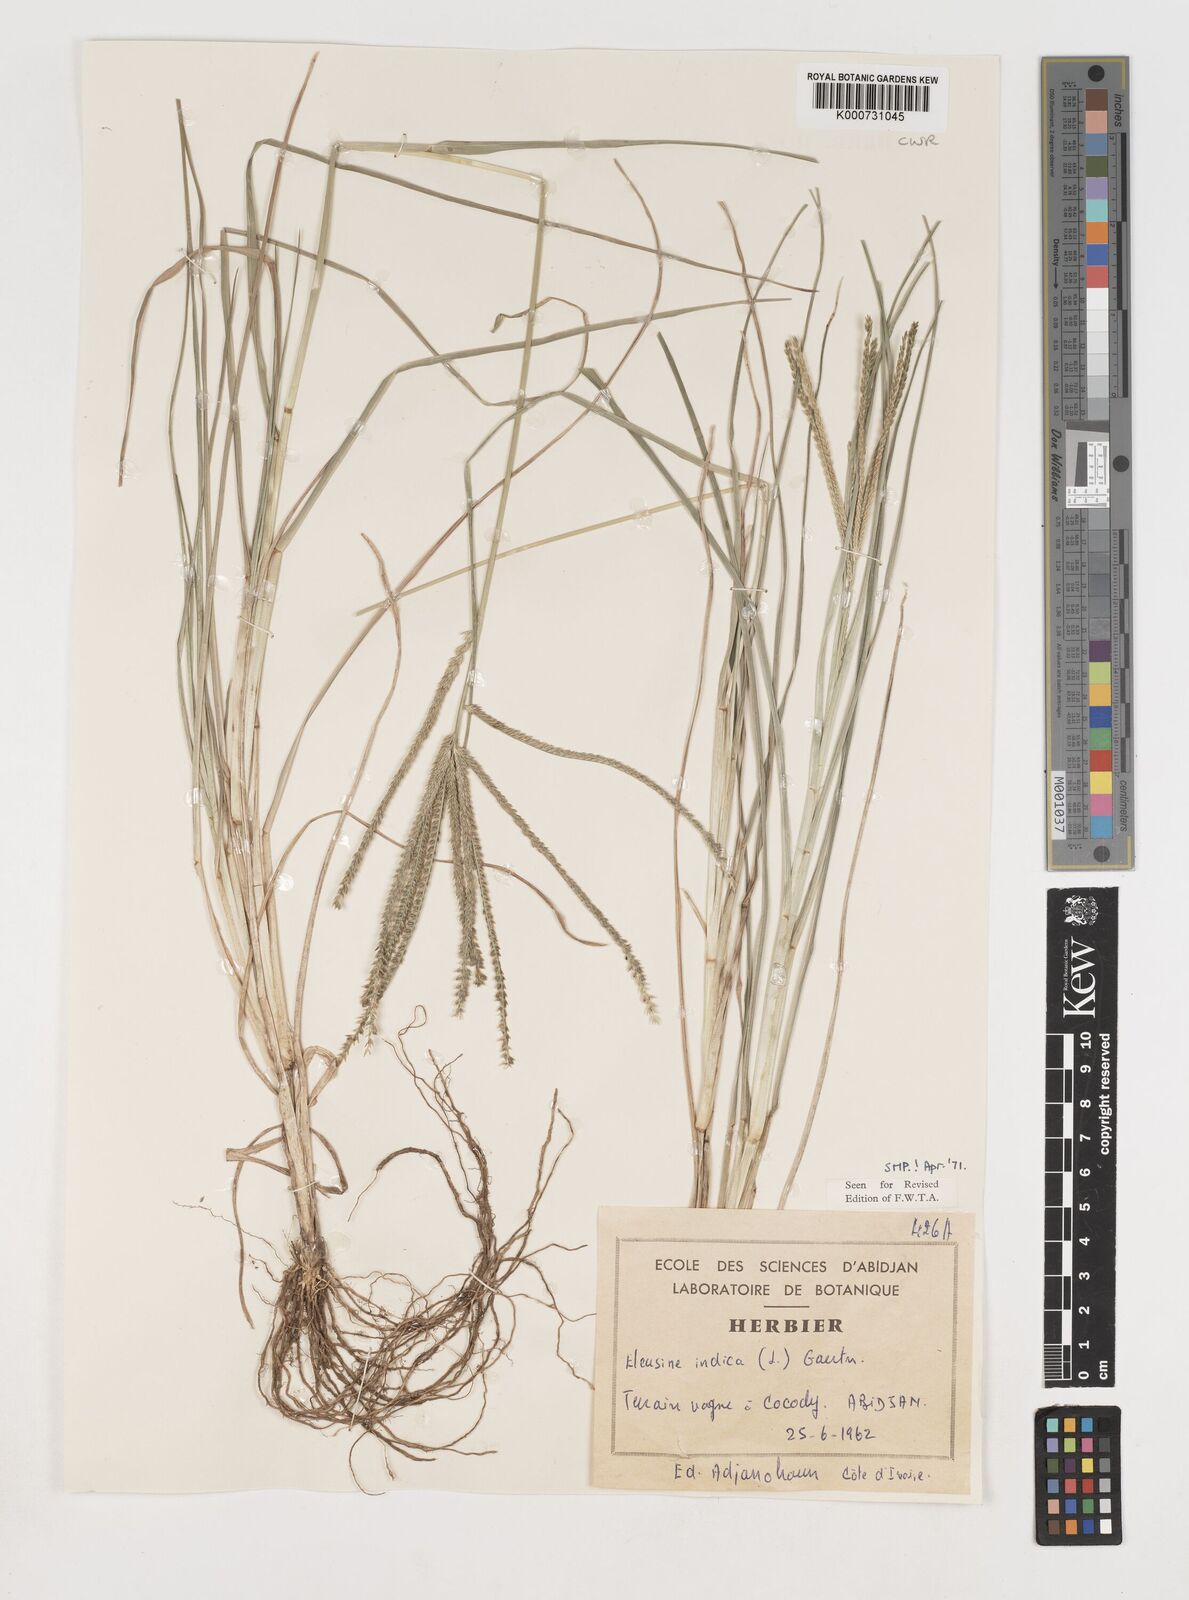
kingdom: Plantae
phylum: Tracheophyta
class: Liliopsida
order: Poales
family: Poaceae
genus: Eleusine
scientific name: Eleusine indica
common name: Yard-grass
